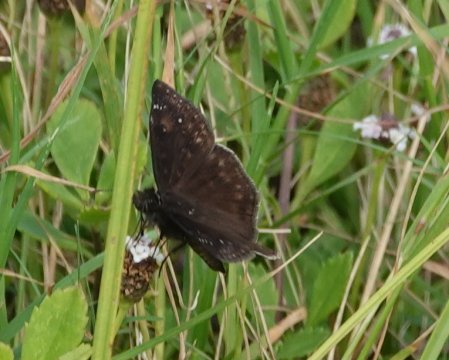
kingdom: Animalia
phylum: Arthropoda
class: Insecta
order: Lepidoptera
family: Hesperiidae
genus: Gesta
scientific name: Gesta
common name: Horace's Duskywing
